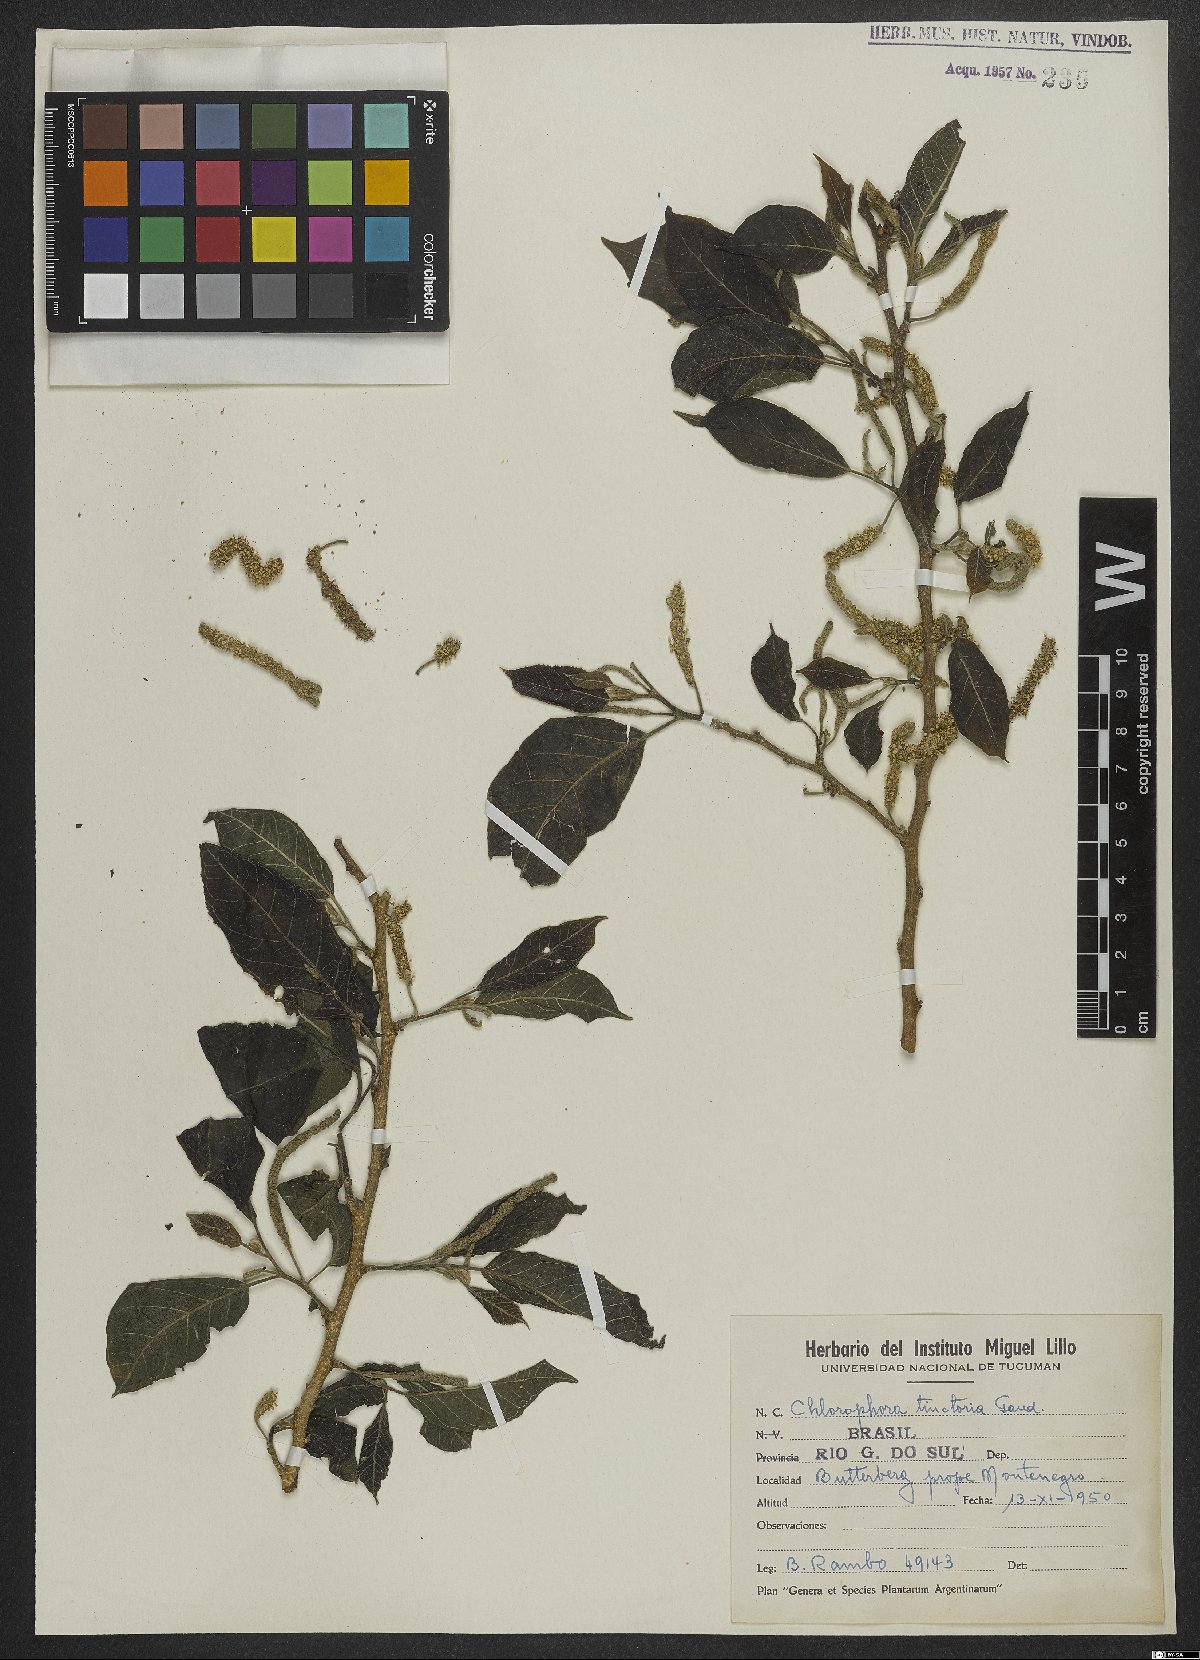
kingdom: Plantae
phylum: Tracheophyta
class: Magnoliopsida
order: Rosales
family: Moraceae
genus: Maclura
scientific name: Maclura tinctoria
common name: Old fustic
